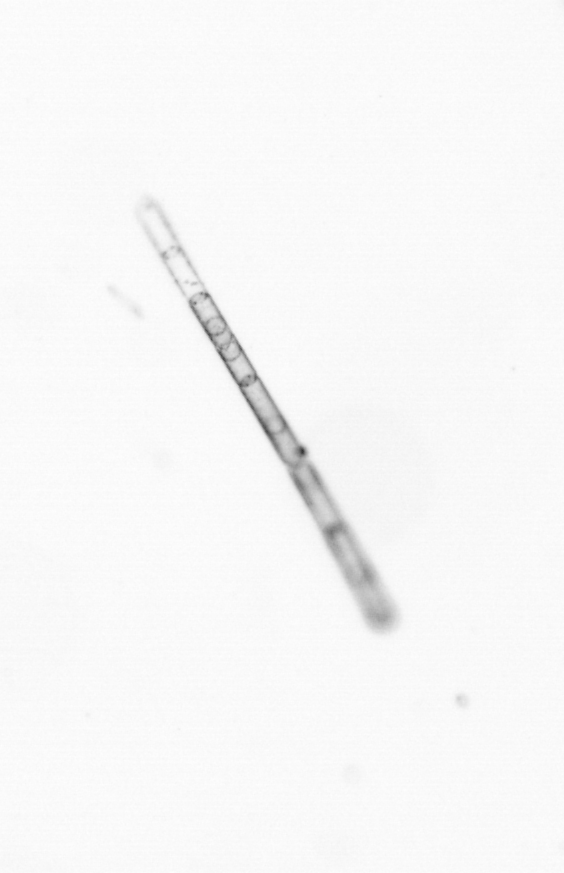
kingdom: Chromista
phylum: Ochrophyta
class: Bacillariophyceae
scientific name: Bacillariophyceae
